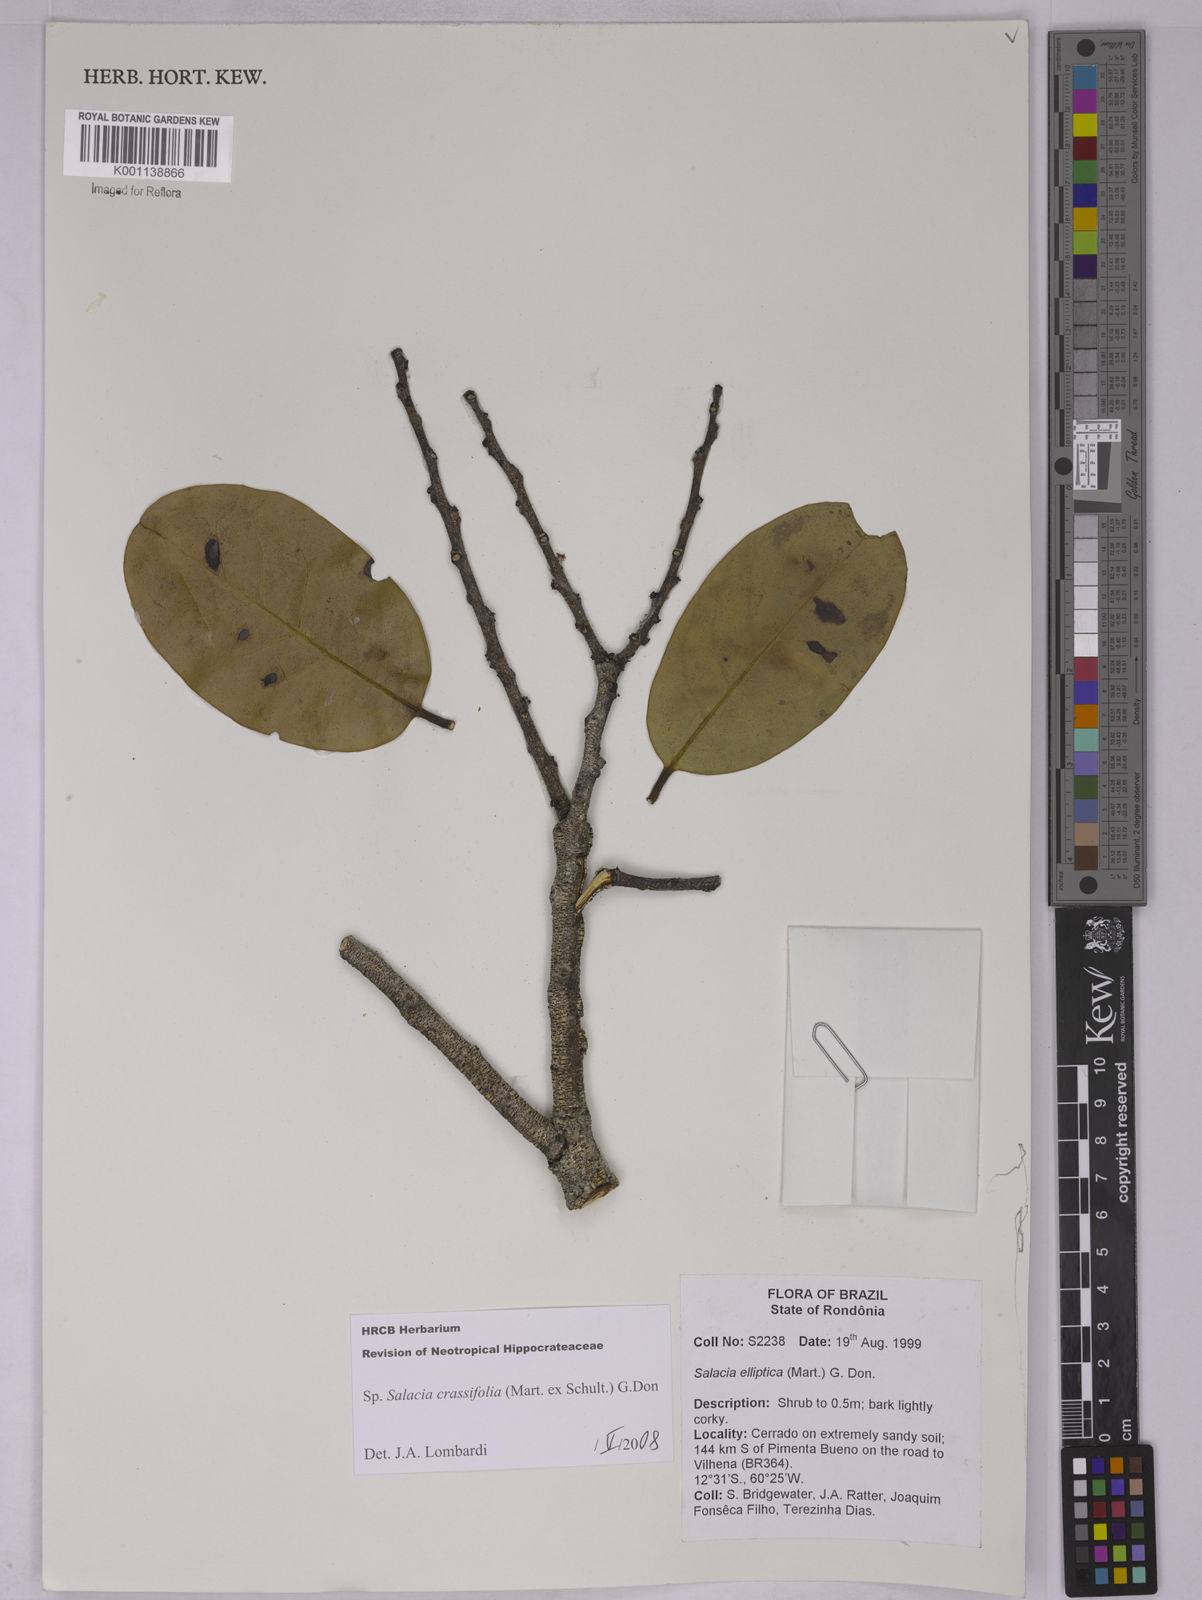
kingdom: Plantae
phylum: Tracheophyta
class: Magnoliopsida
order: Celastrales
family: Celastraceae
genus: Salacia
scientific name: Salacia crassifolia
